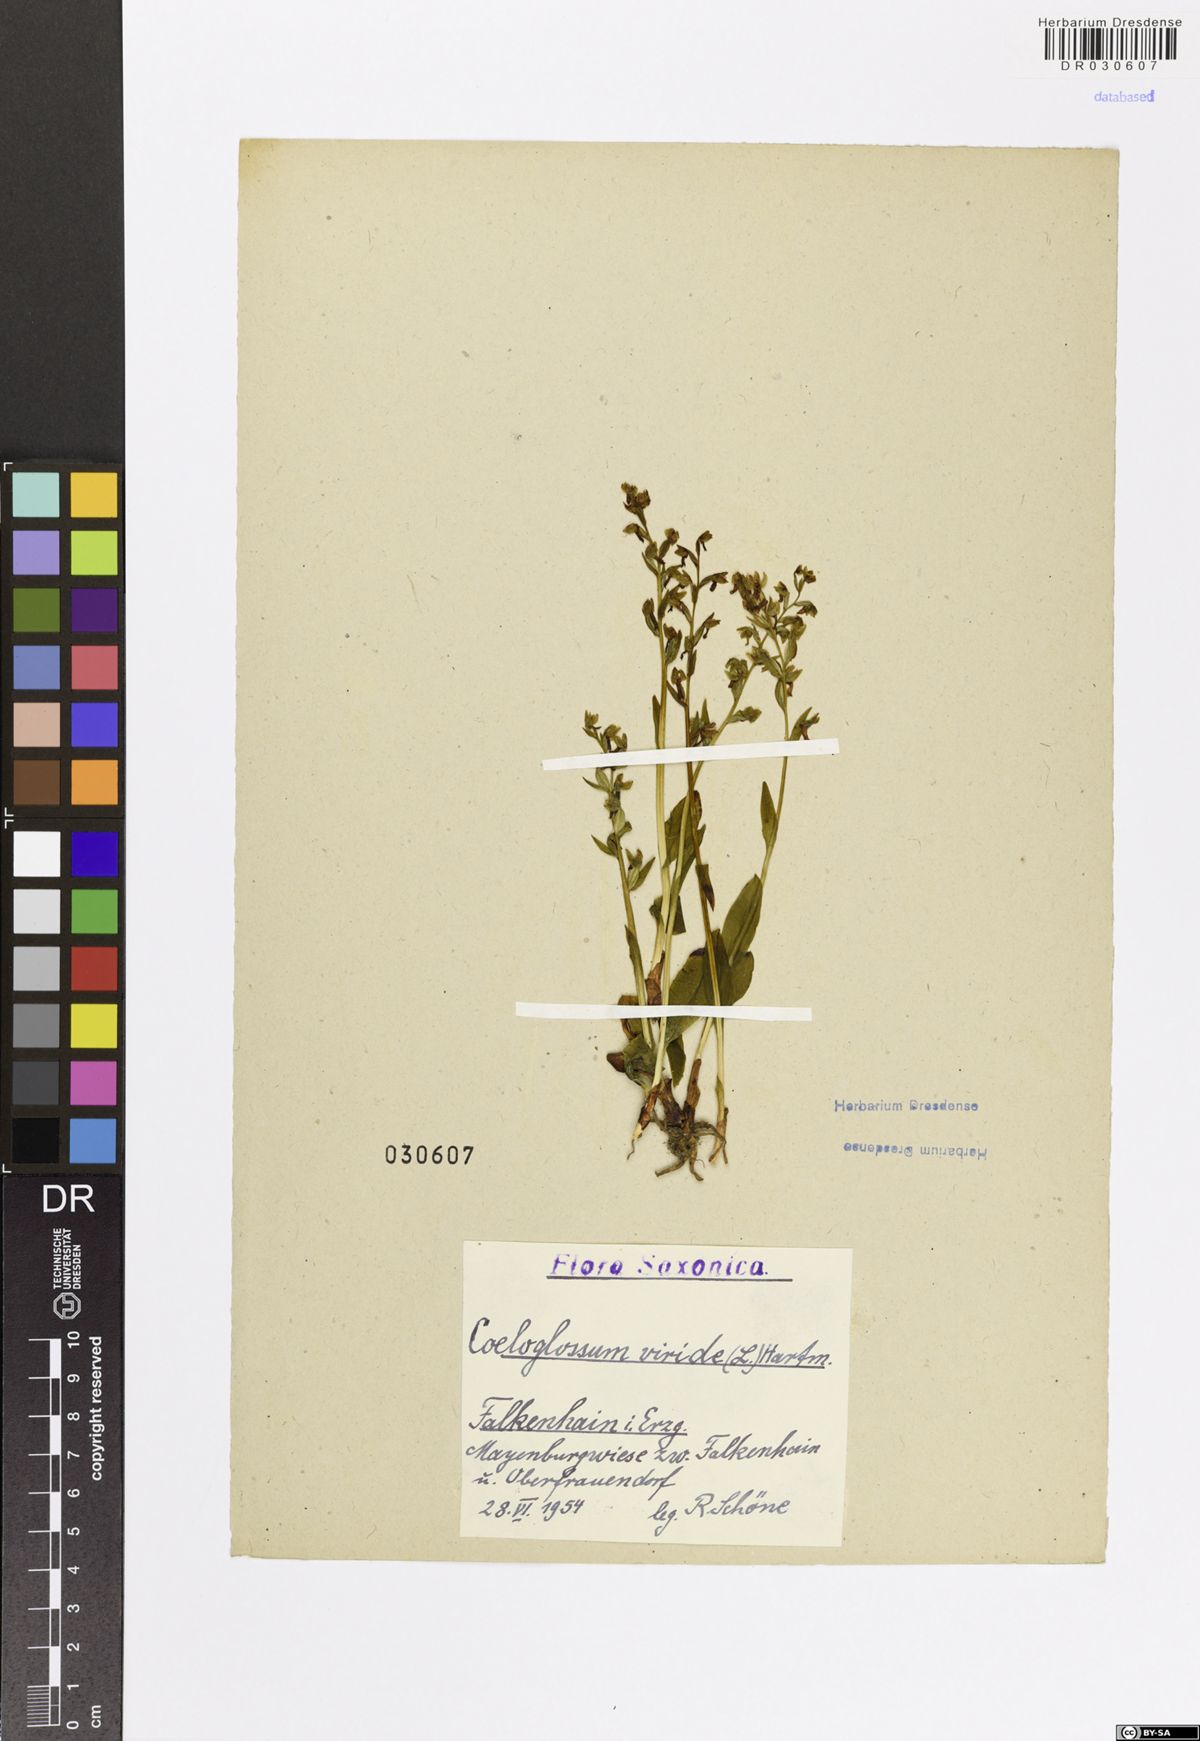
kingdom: Plantae
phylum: Tracheophyta
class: Liliopsida
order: Asparagales
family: Orchidaceae
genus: Dactylorhiza
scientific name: Dactylorhiza viridis
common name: Longbract frog orchid
